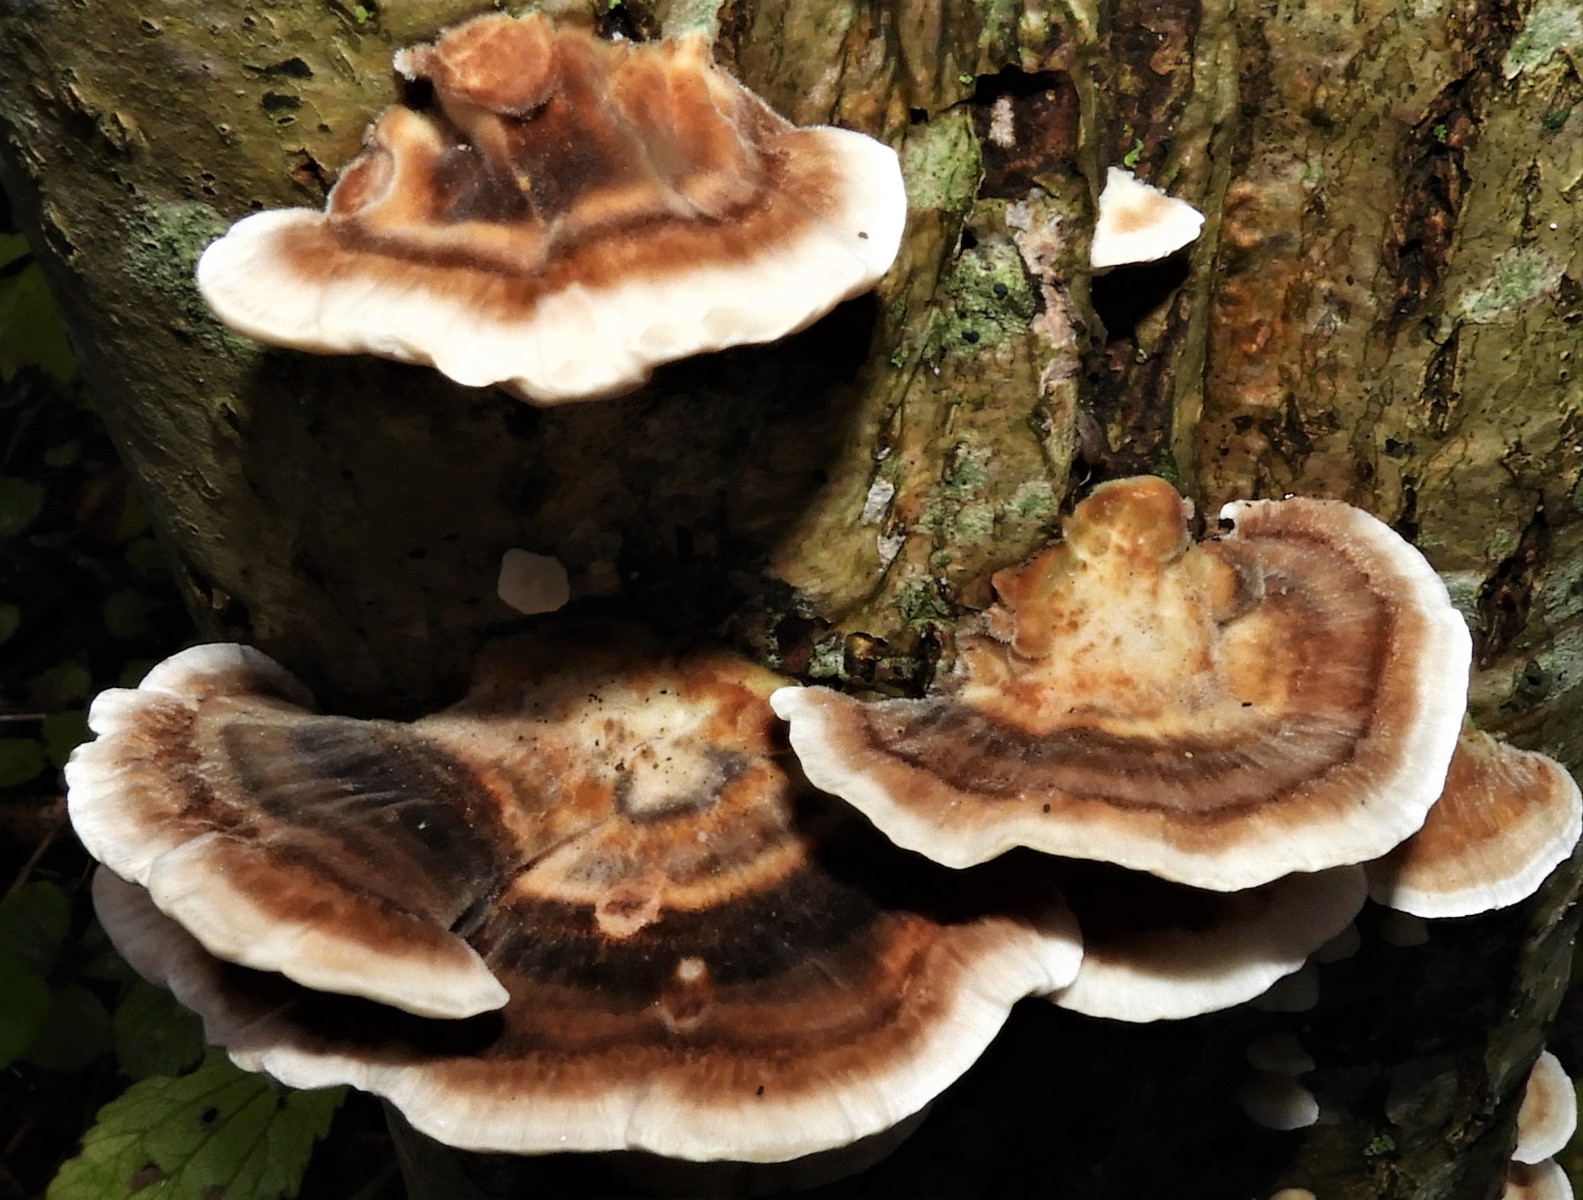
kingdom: Fungi
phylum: Basidiomycota
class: Agaricomycetes
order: Polyporales
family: Polyporaceae
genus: Trametes
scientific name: Trametes versicolor
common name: broget læderporesvamp
